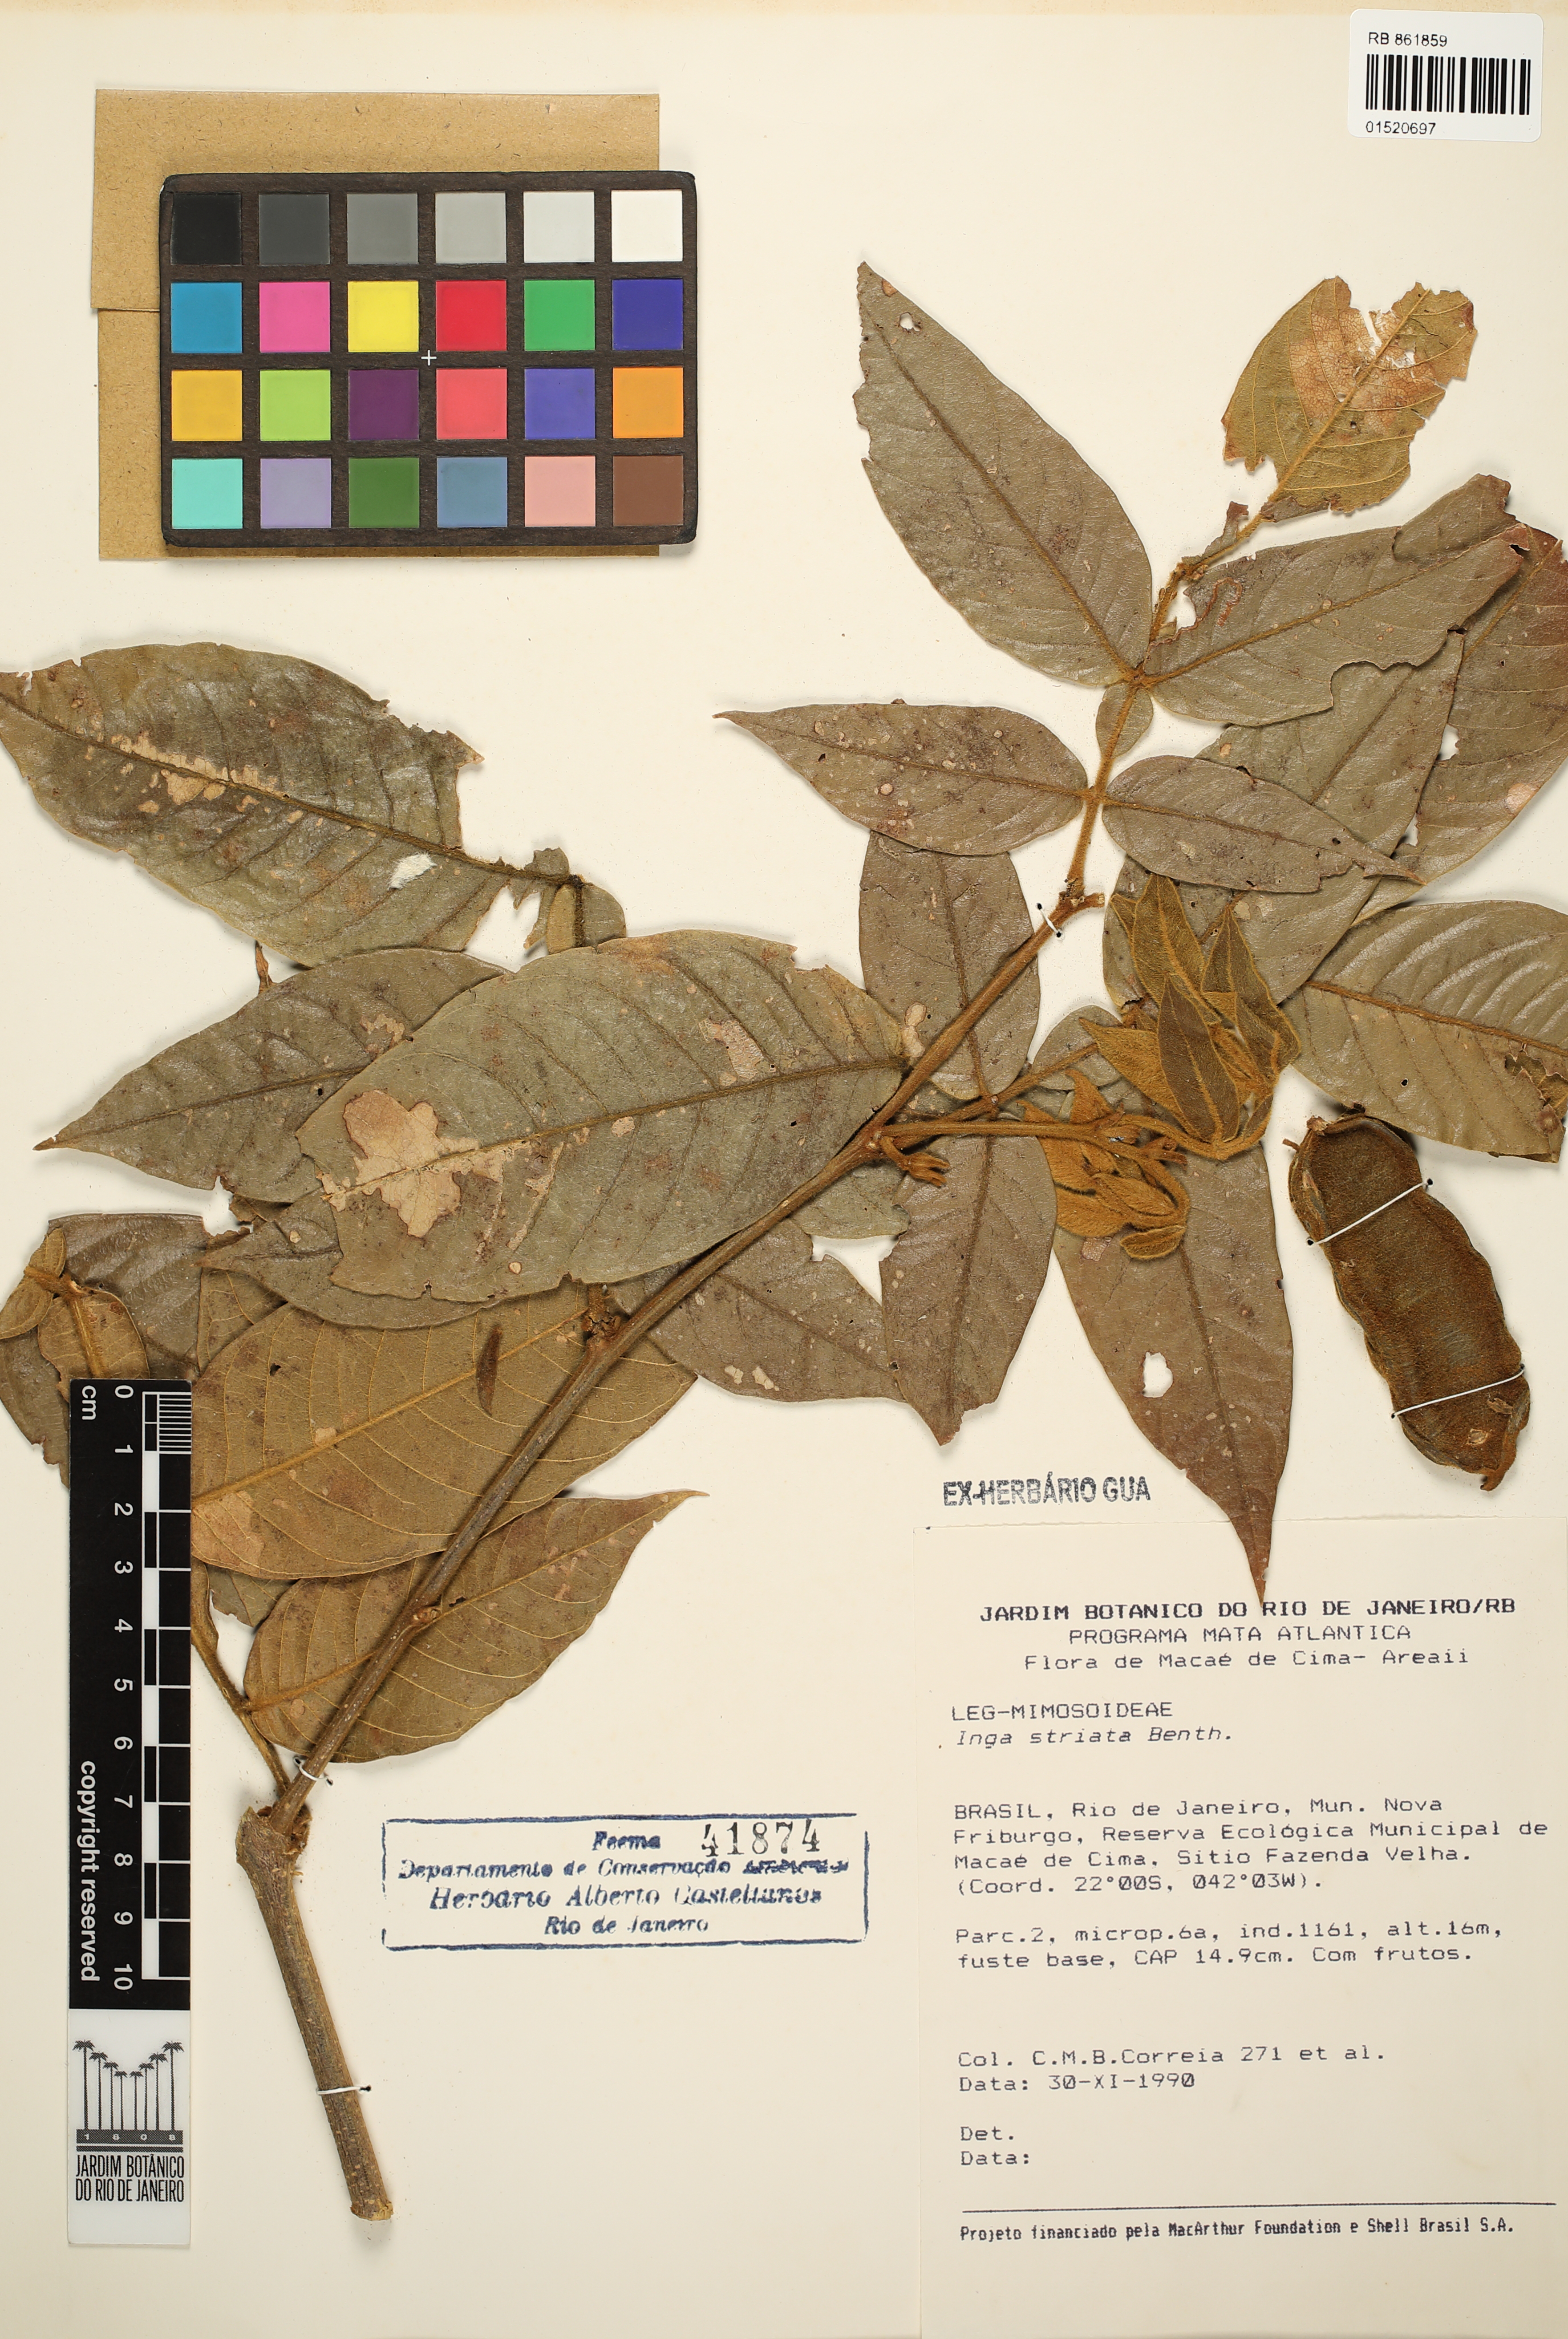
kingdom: Plantae
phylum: Tracheophyta
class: Magnoliopsida
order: Fabales
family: Fabaceae
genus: Inga
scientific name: Inga striata
